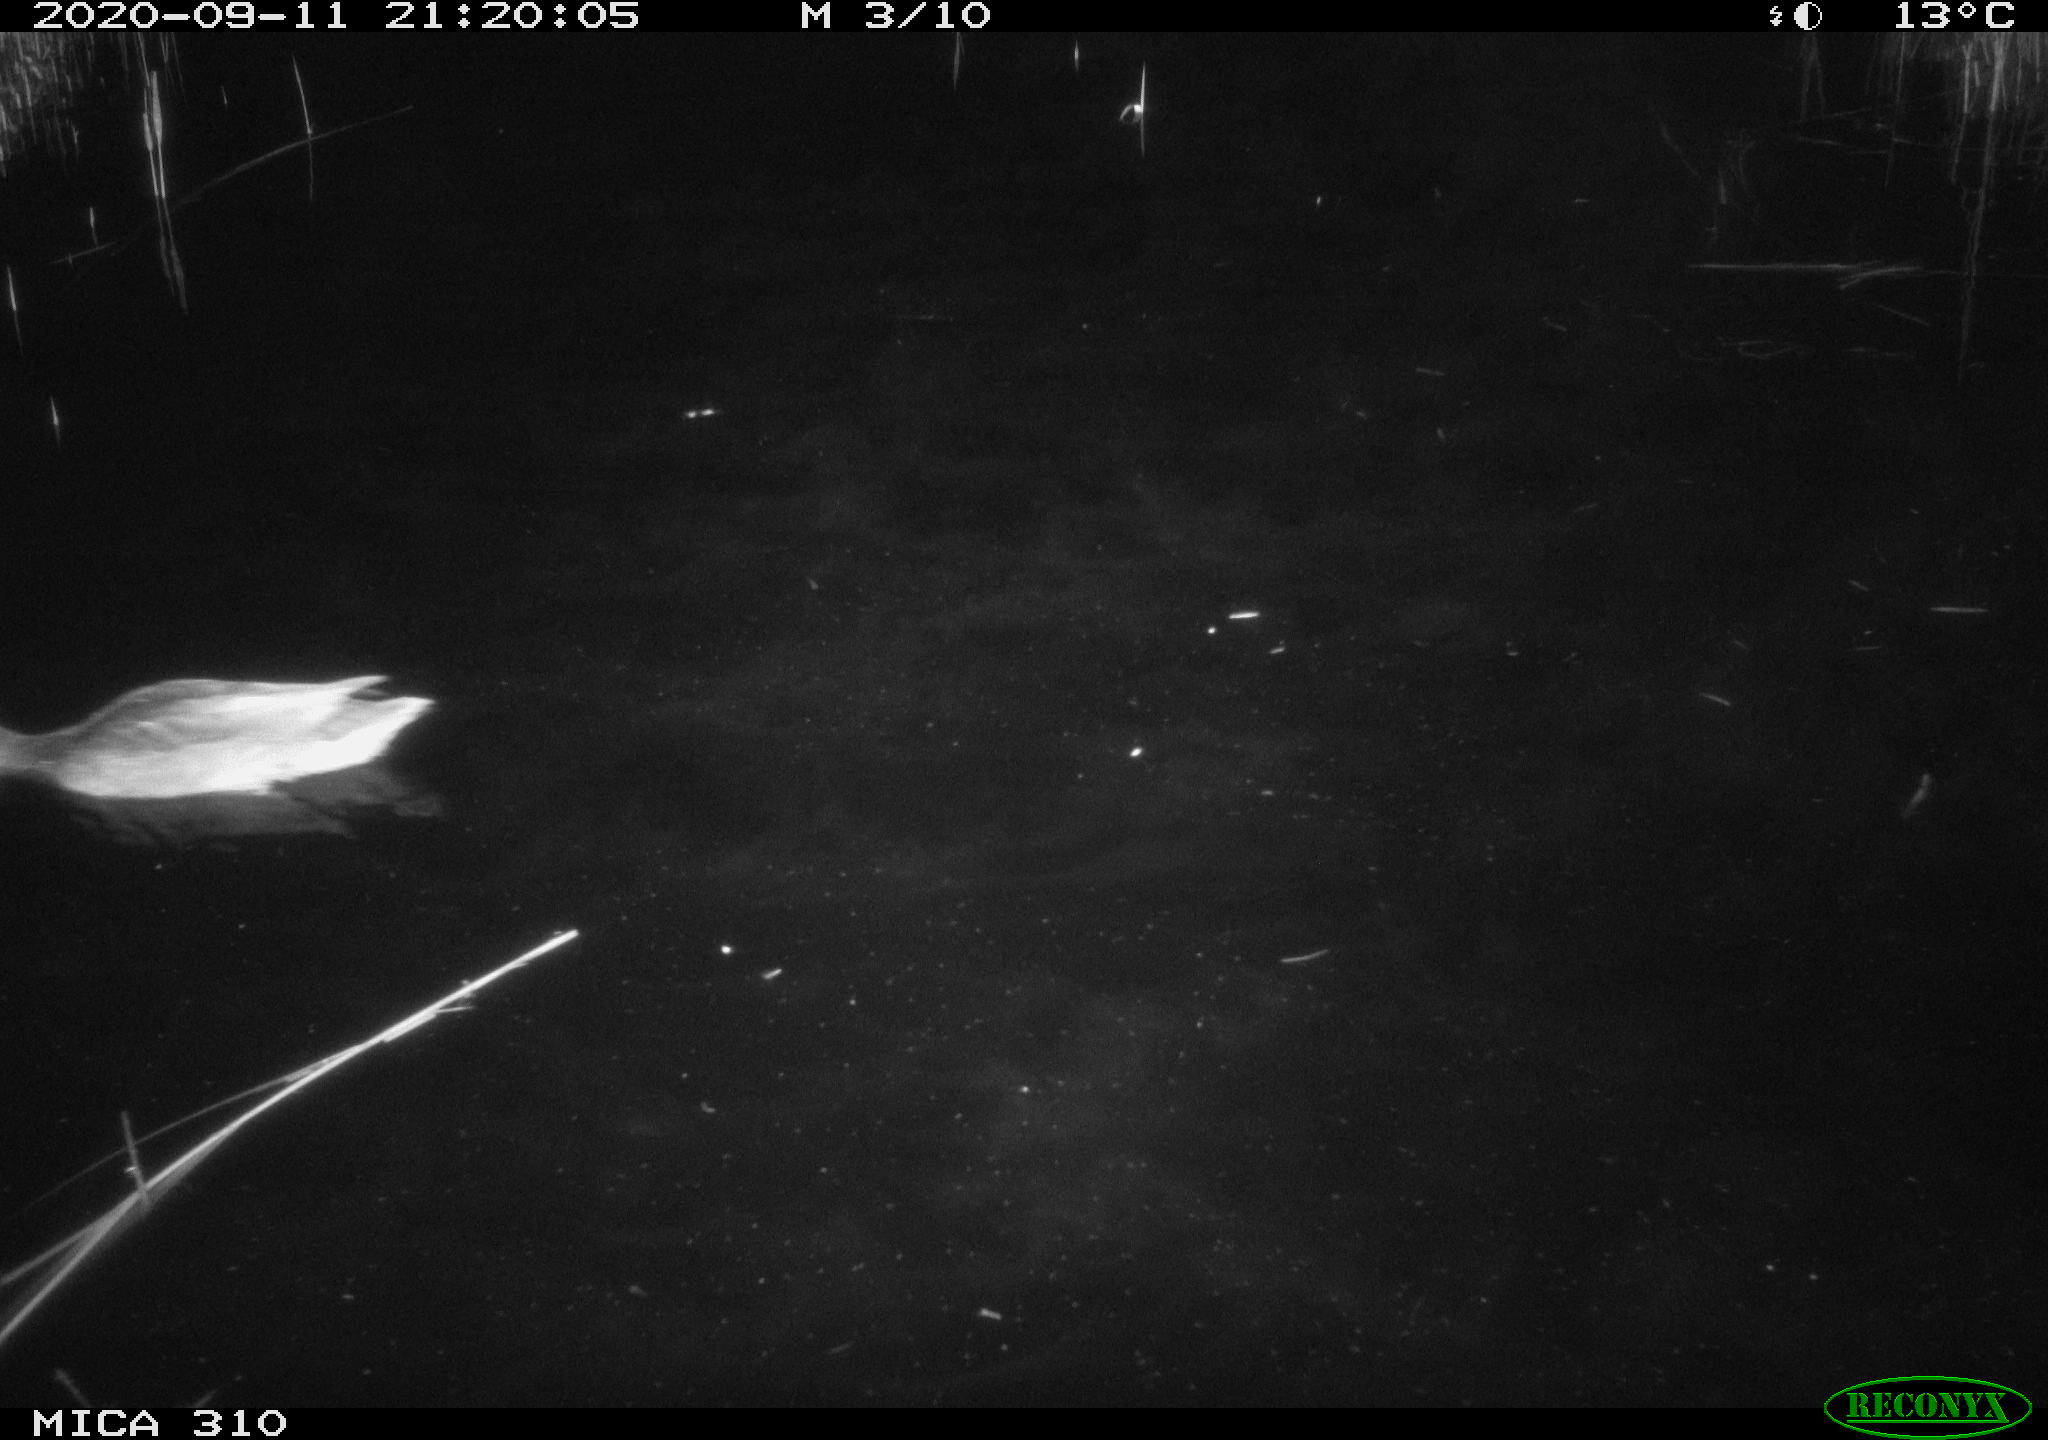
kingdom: Animalia
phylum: Chordata
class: Aves
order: Anseriformes
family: Anatidae
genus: Anas
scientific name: Anas platyrhynchos
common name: Mallard
